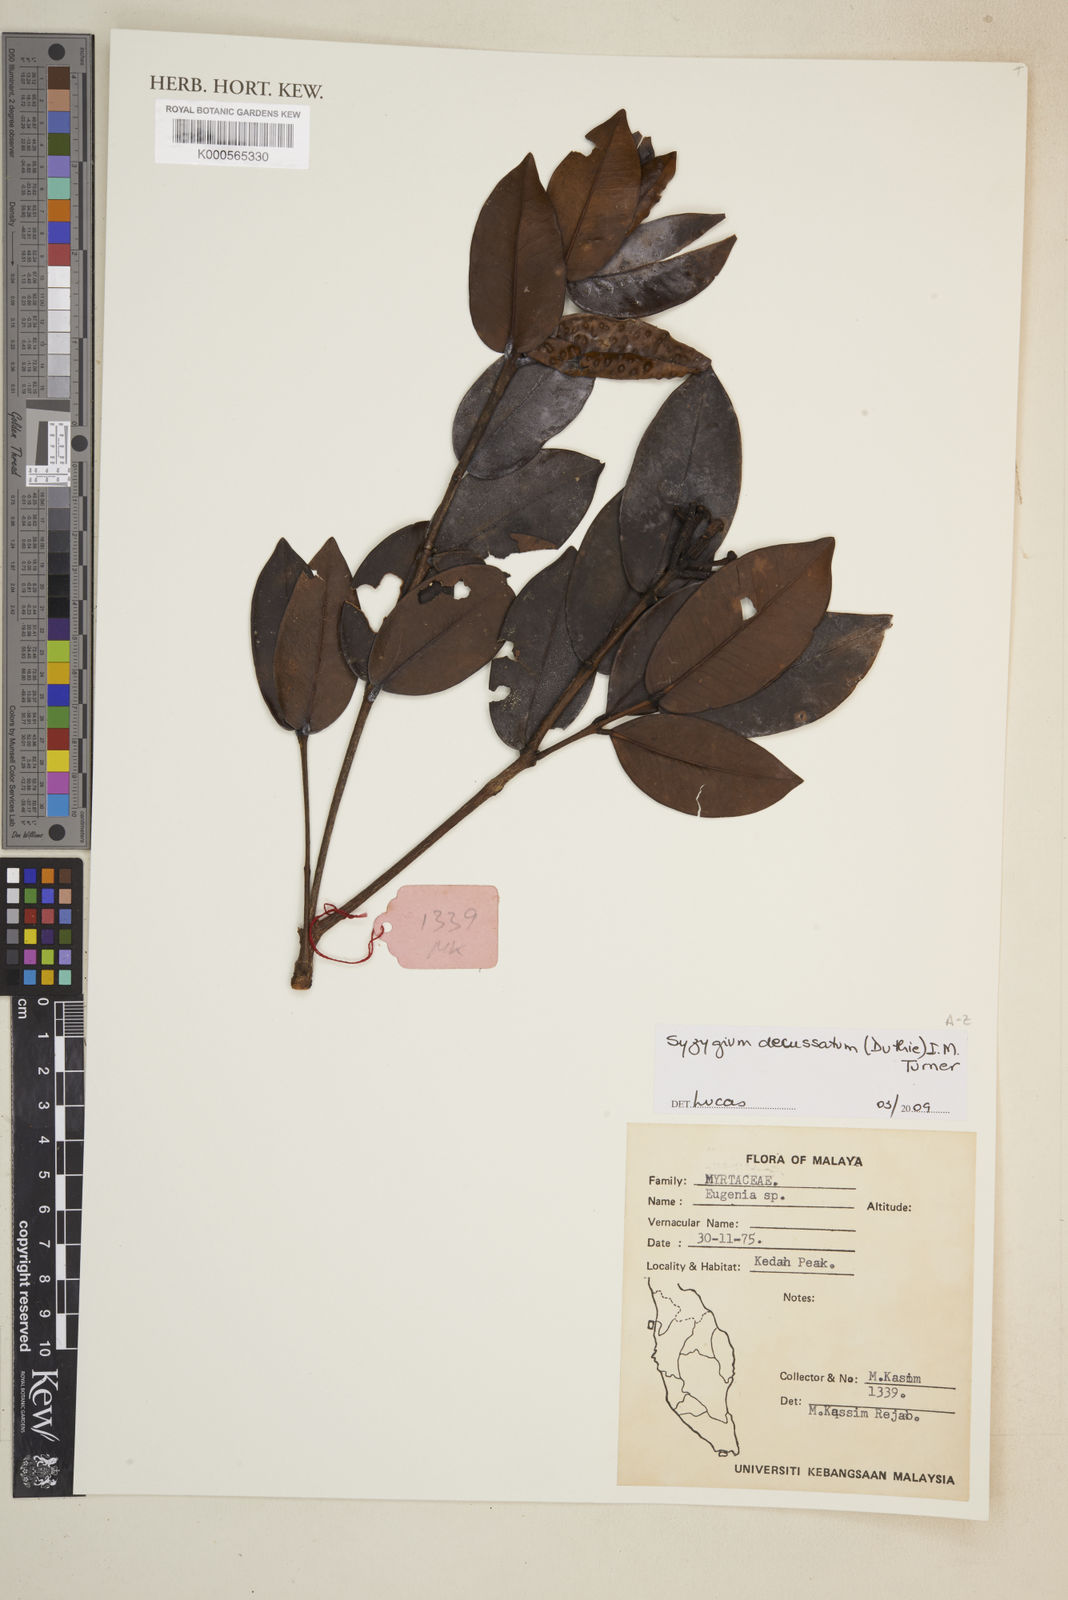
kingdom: Plantae
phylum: Tracheophyta
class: Magnoliopsida
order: Myrtales
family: Myrtaceae
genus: Syzygium
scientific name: Syzygium
